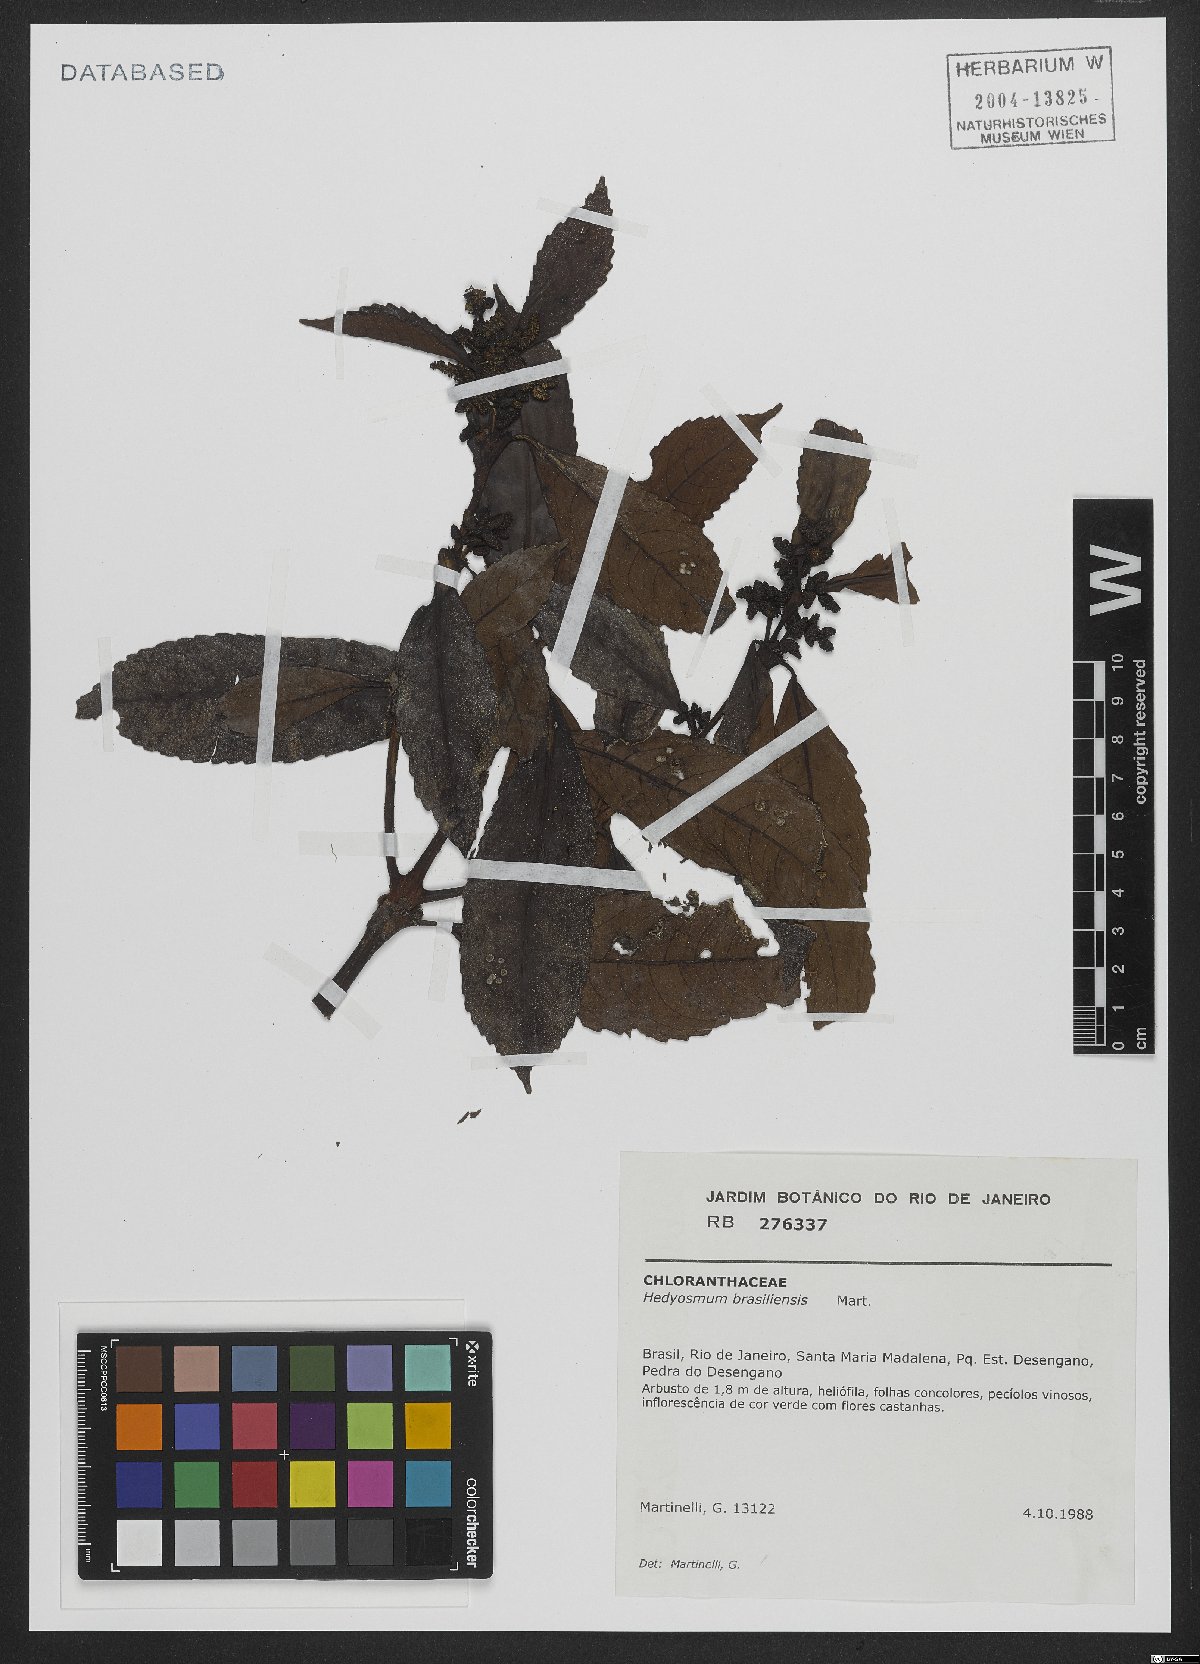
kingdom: Plantae
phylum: Tracheophyta
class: Magnoliopsida
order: Chloranthales
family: Chloranthaceae
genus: Hedyosmum
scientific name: Hedyosmum brasiliense
